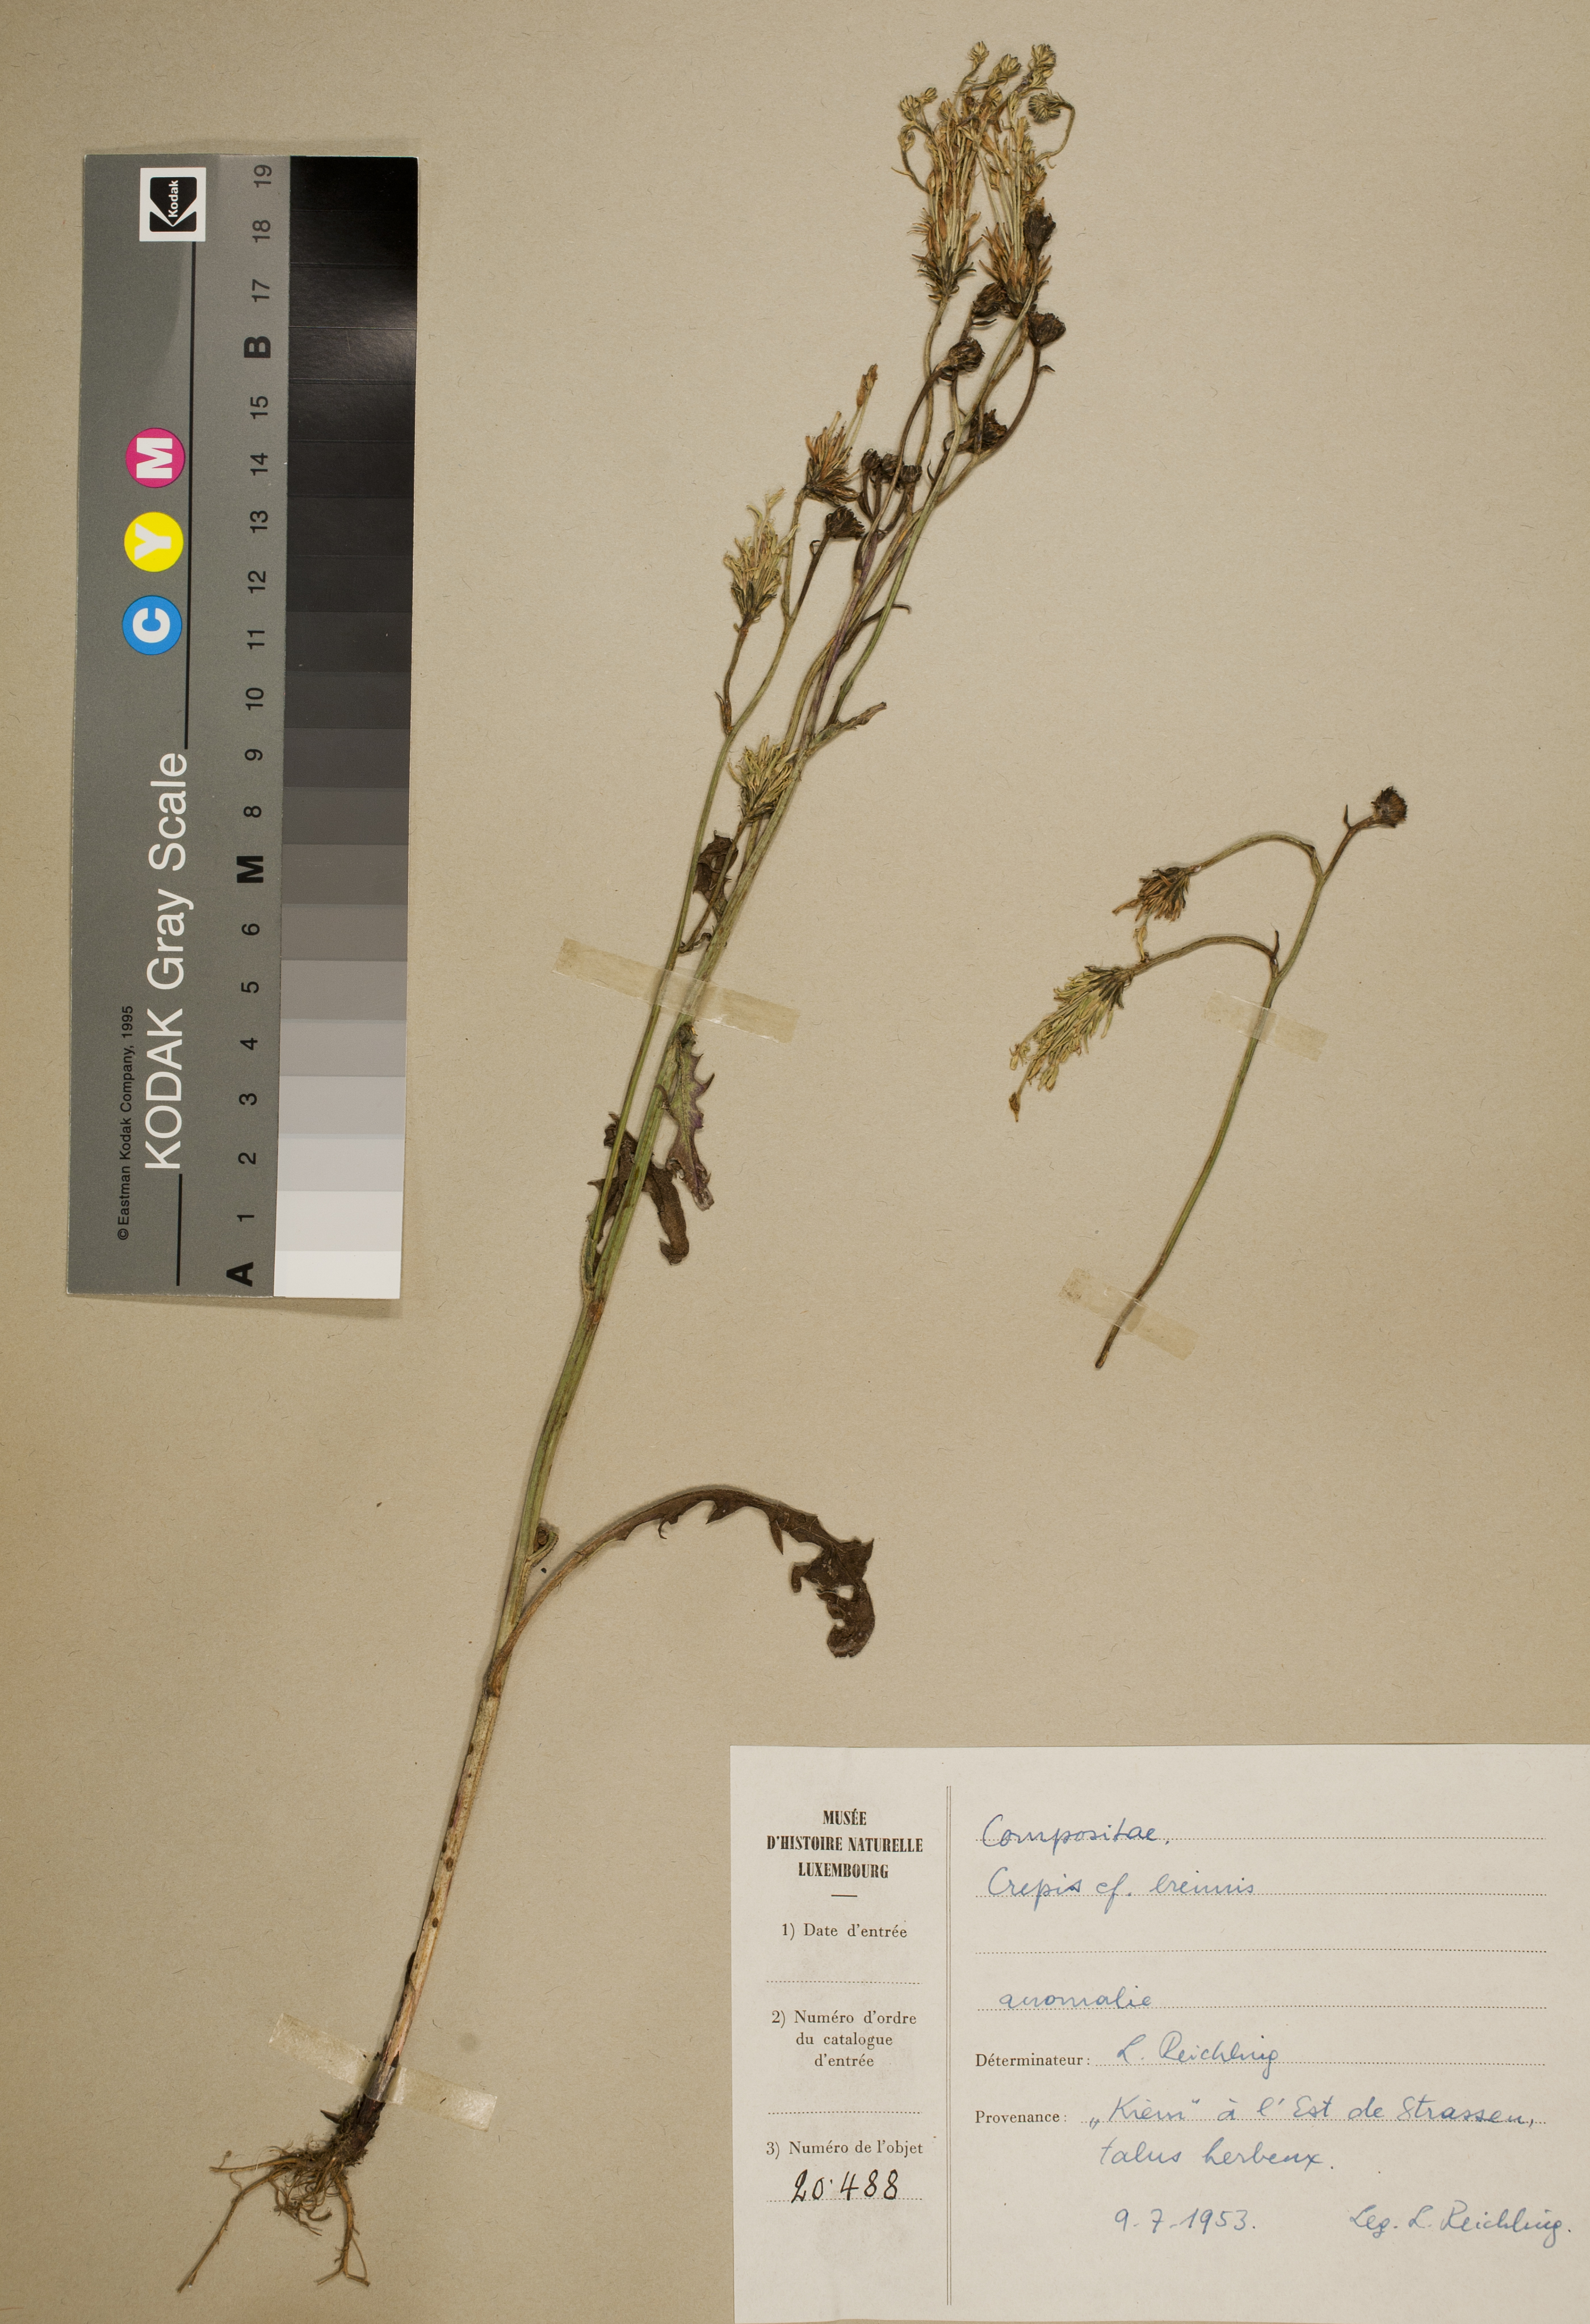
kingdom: Plantae
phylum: Tracheophyta
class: Magnoliopsida
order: Asterales
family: Asteraceae
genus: Crepis
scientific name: Crepis biennis
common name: Rough hawk's-beard
